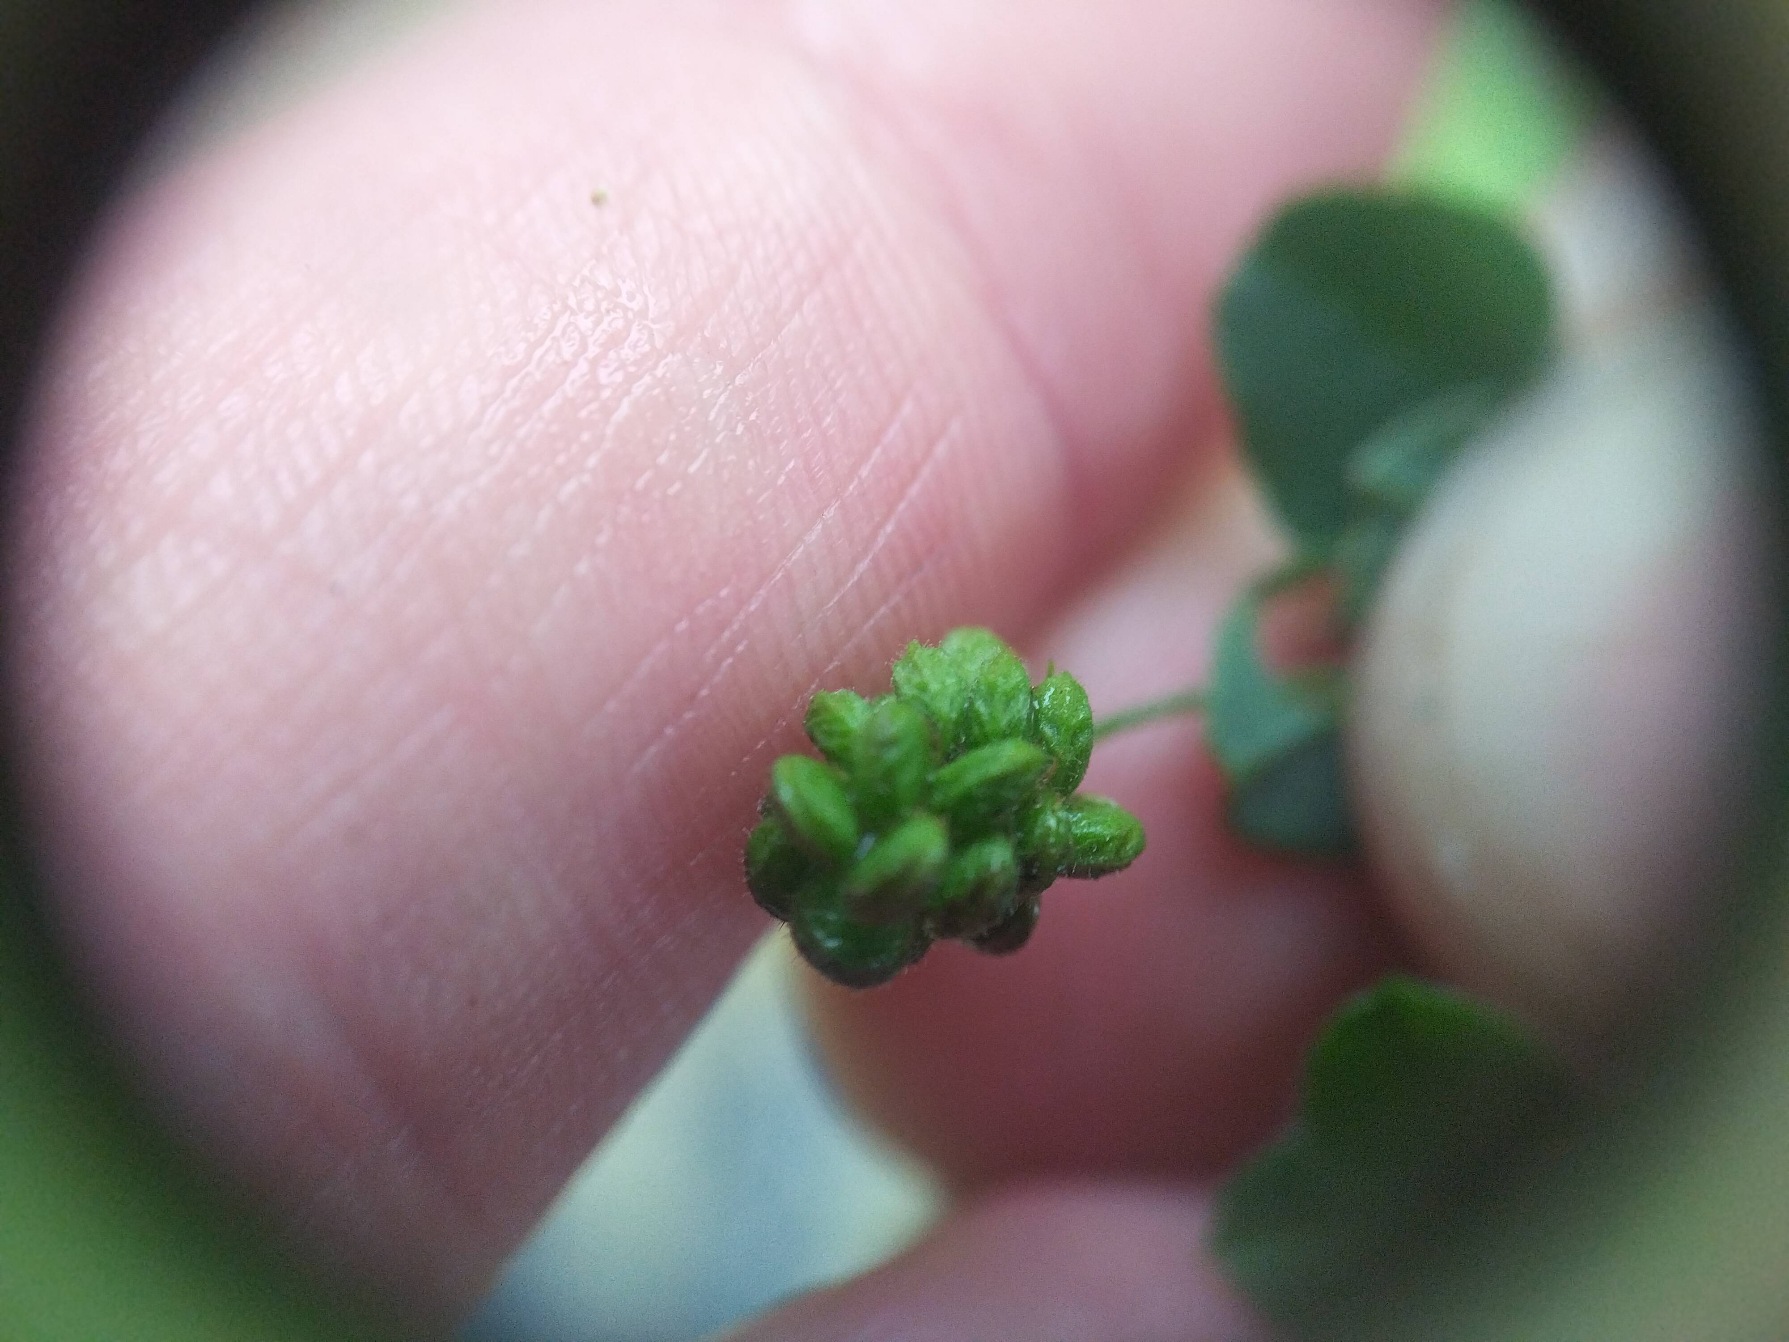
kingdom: Plantae
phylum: Tracheophyta
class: Magnoliopsida
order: Fabales
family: Fabaceae
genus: Medicago
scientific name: Medicago lupulina
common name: Humle-sneglebælg
